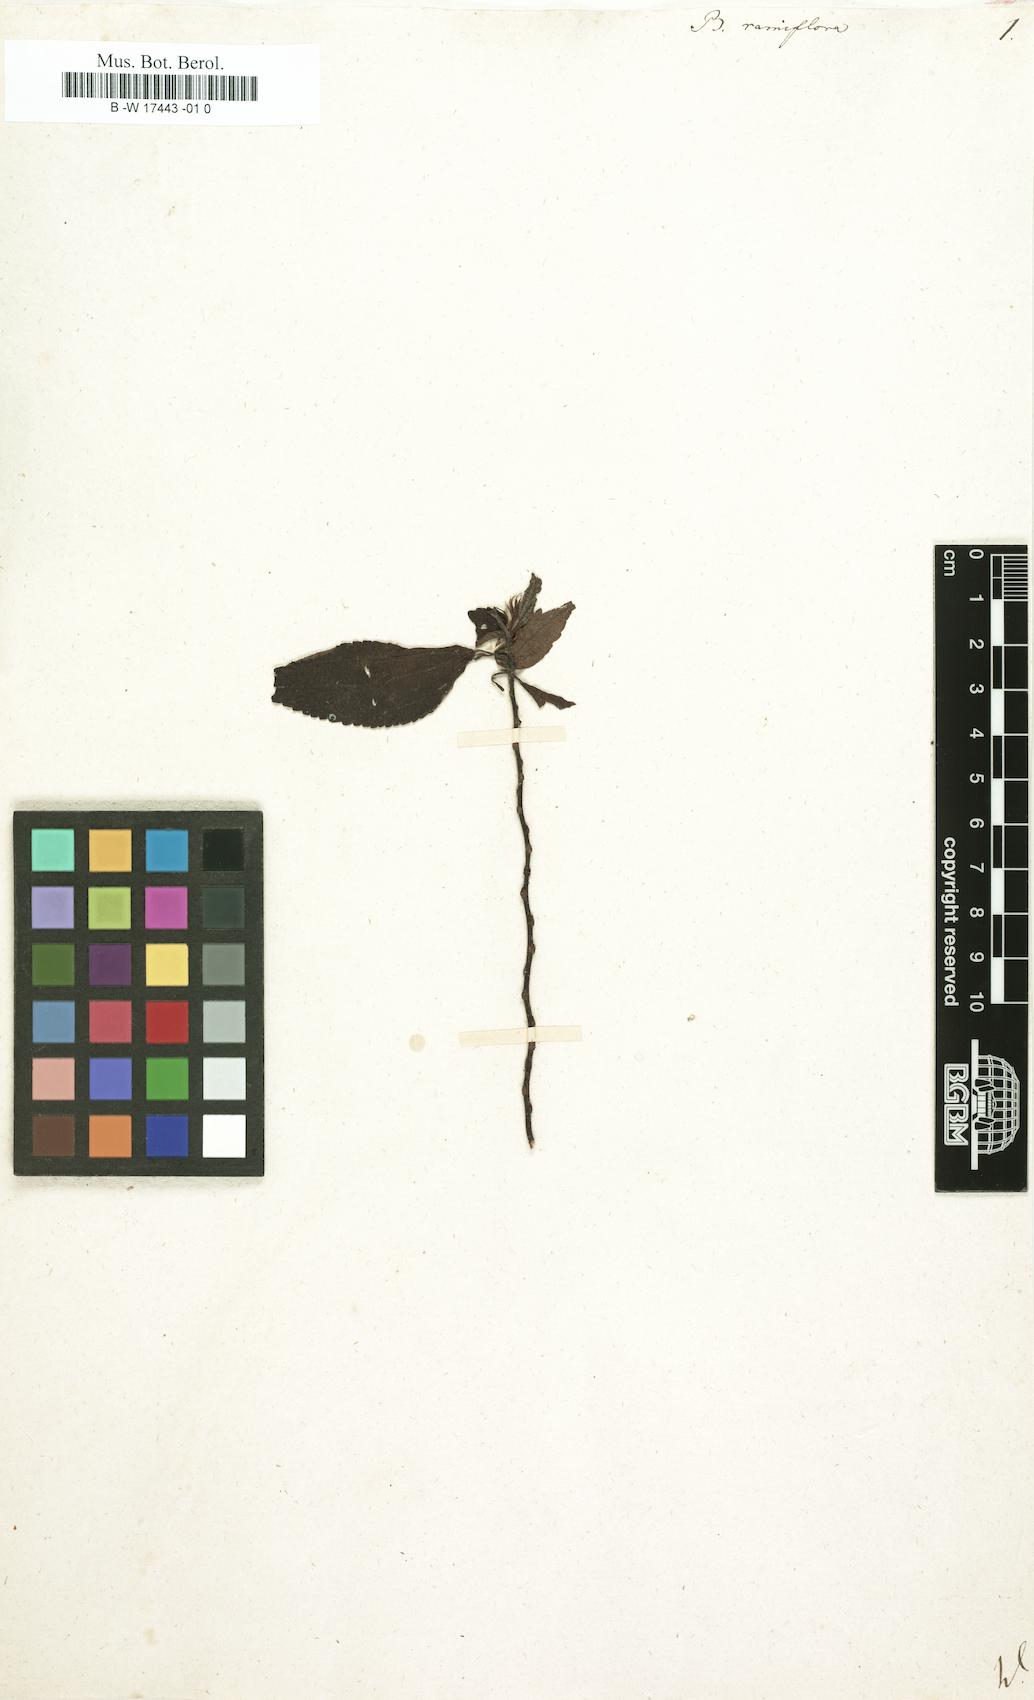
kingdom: Plantae
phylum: Tracheophyta
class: Magnoliopsida
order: Rosales
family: Urticaceae
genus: Boehmeria
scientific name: Boehmeria ramiflora
